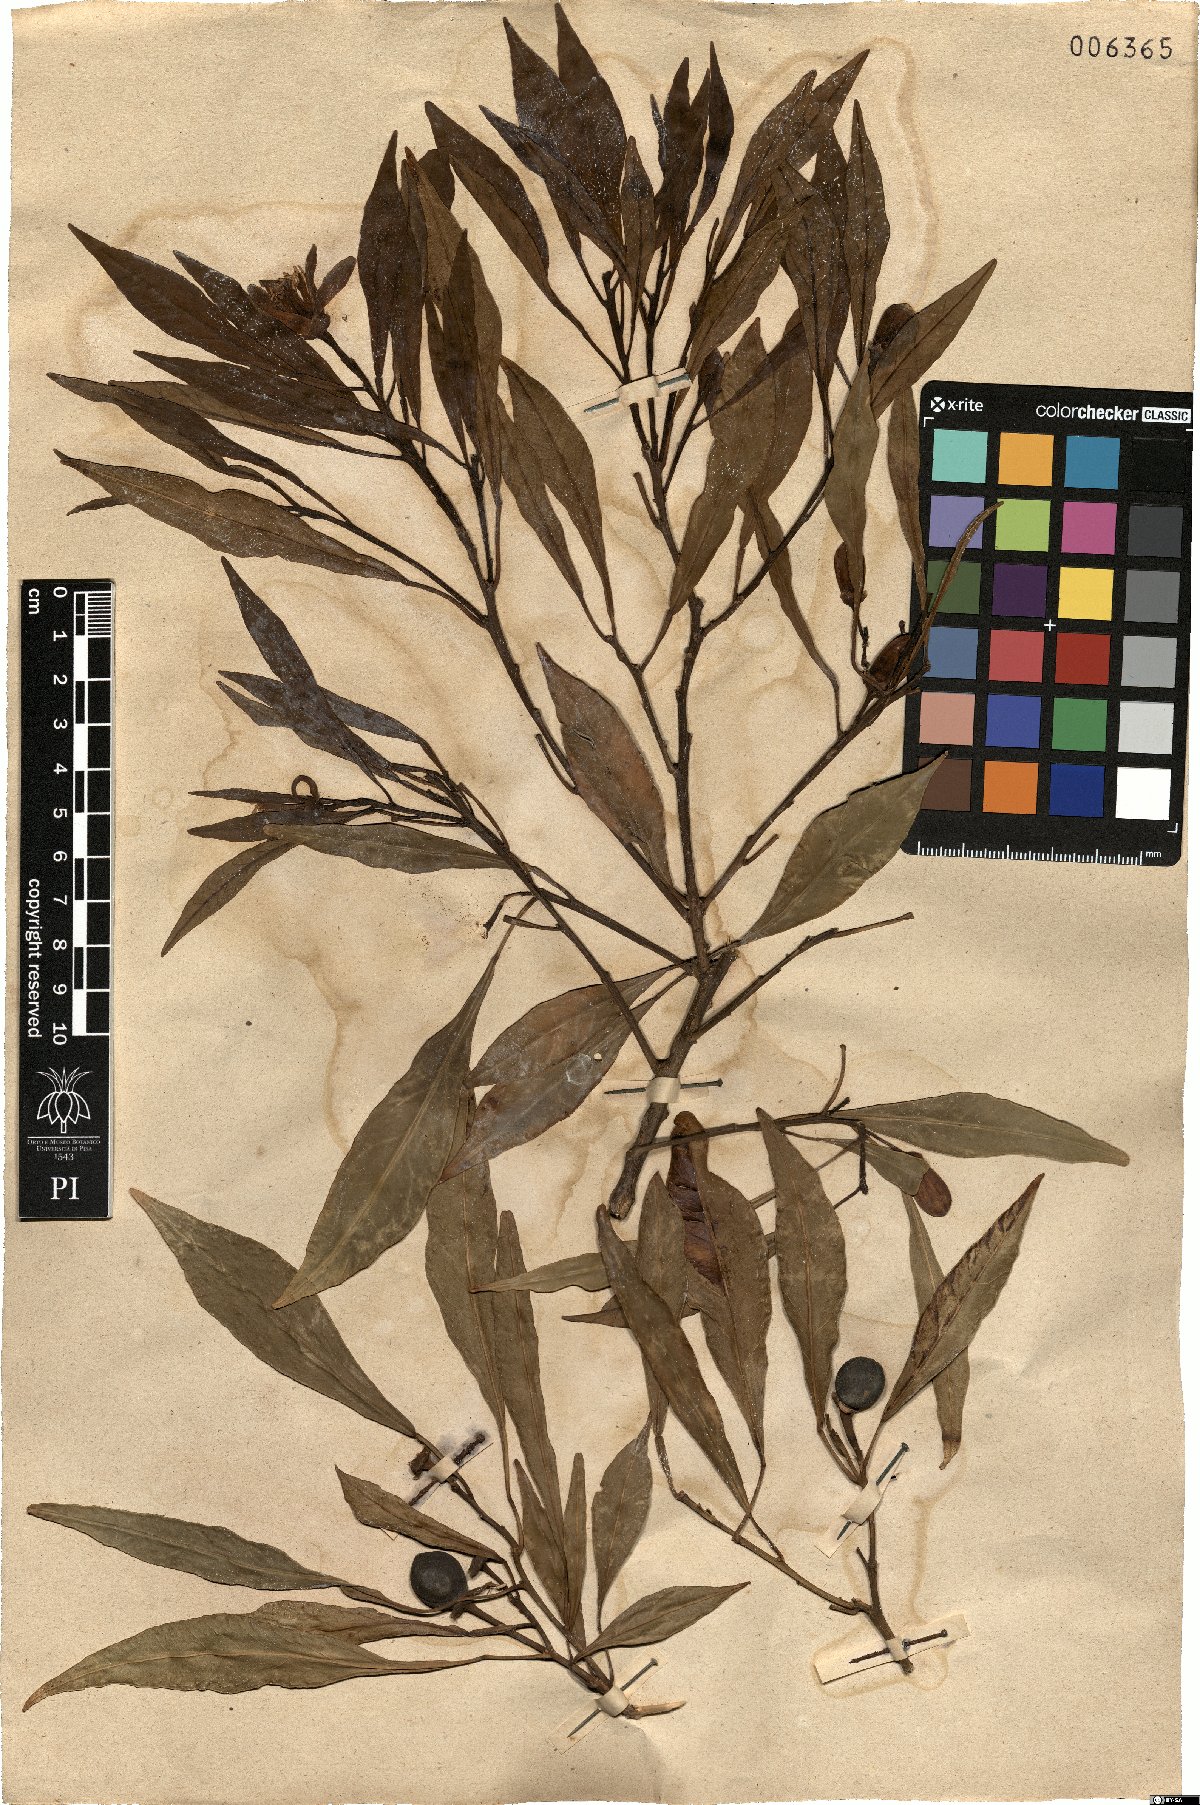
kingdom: Plantae
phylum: Tracheophyta
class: Magnoliopsida
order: Sapindales
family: Rutaceae
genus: Citrus
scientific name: Citrus aurantium
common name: Sour orange
